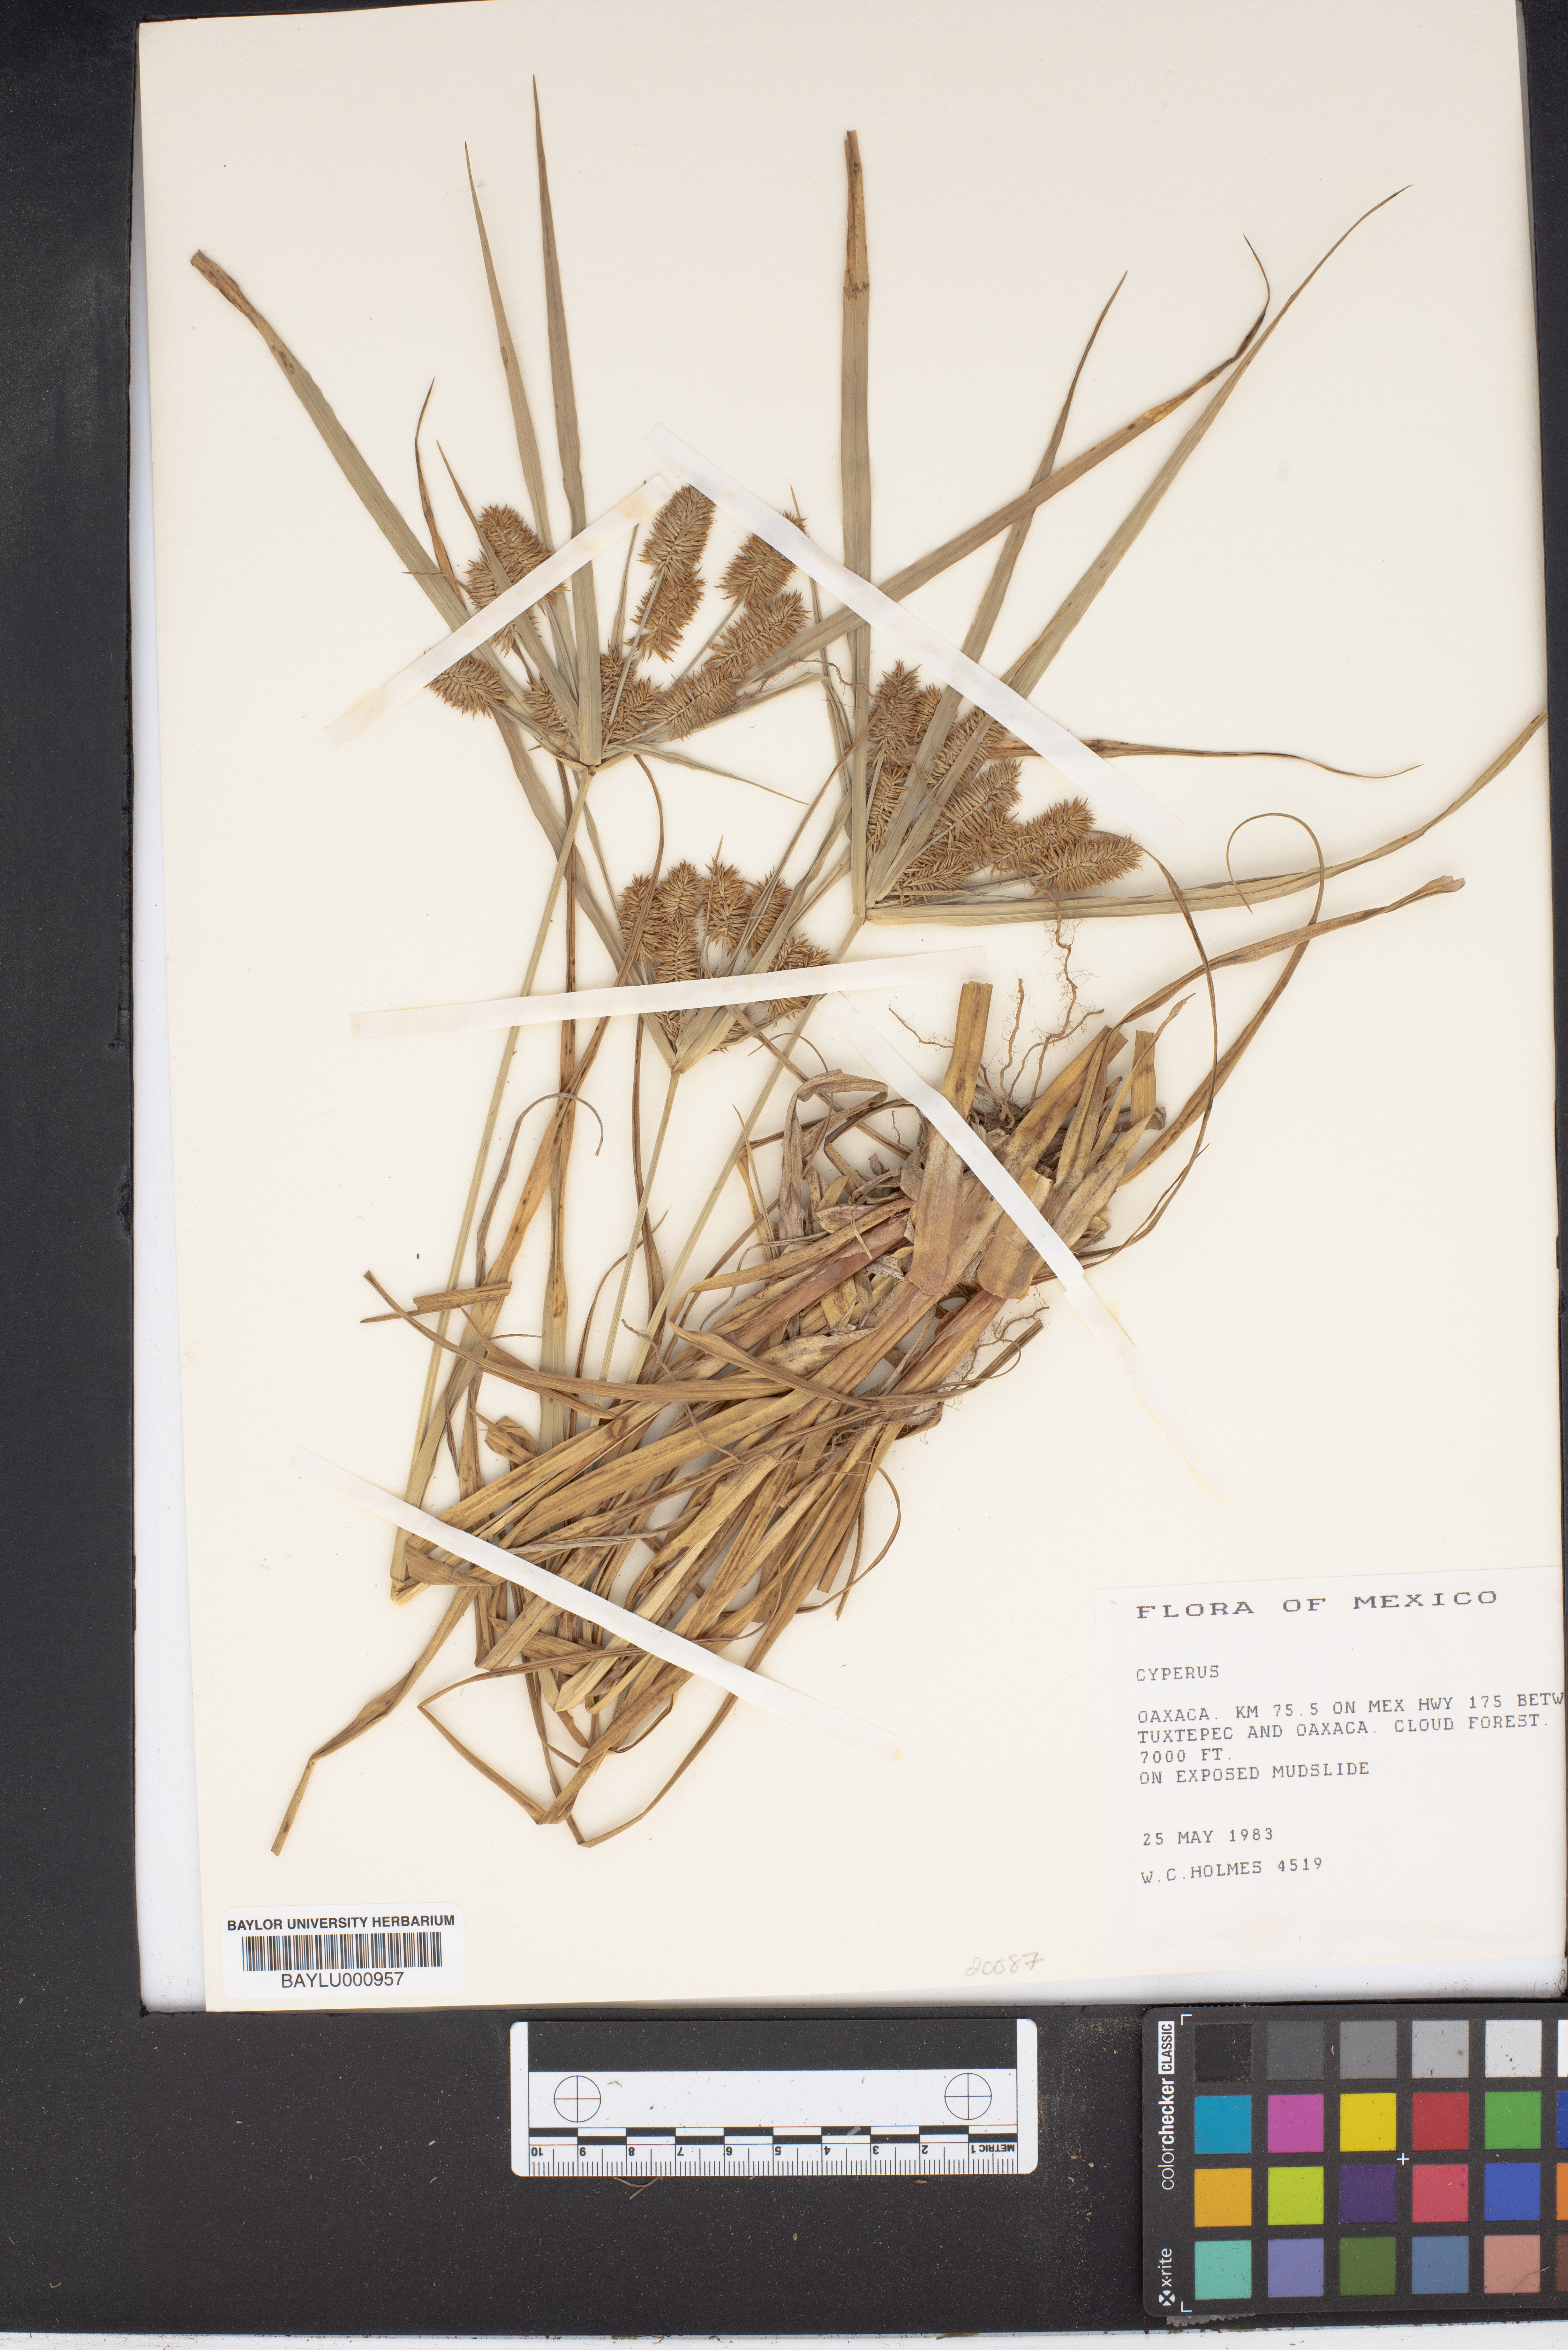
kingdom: Plantae
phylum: Tracheophyta
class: Liliopsida
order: Poales
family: Cyperaceae
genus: Cyperus
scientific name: Cyperus
